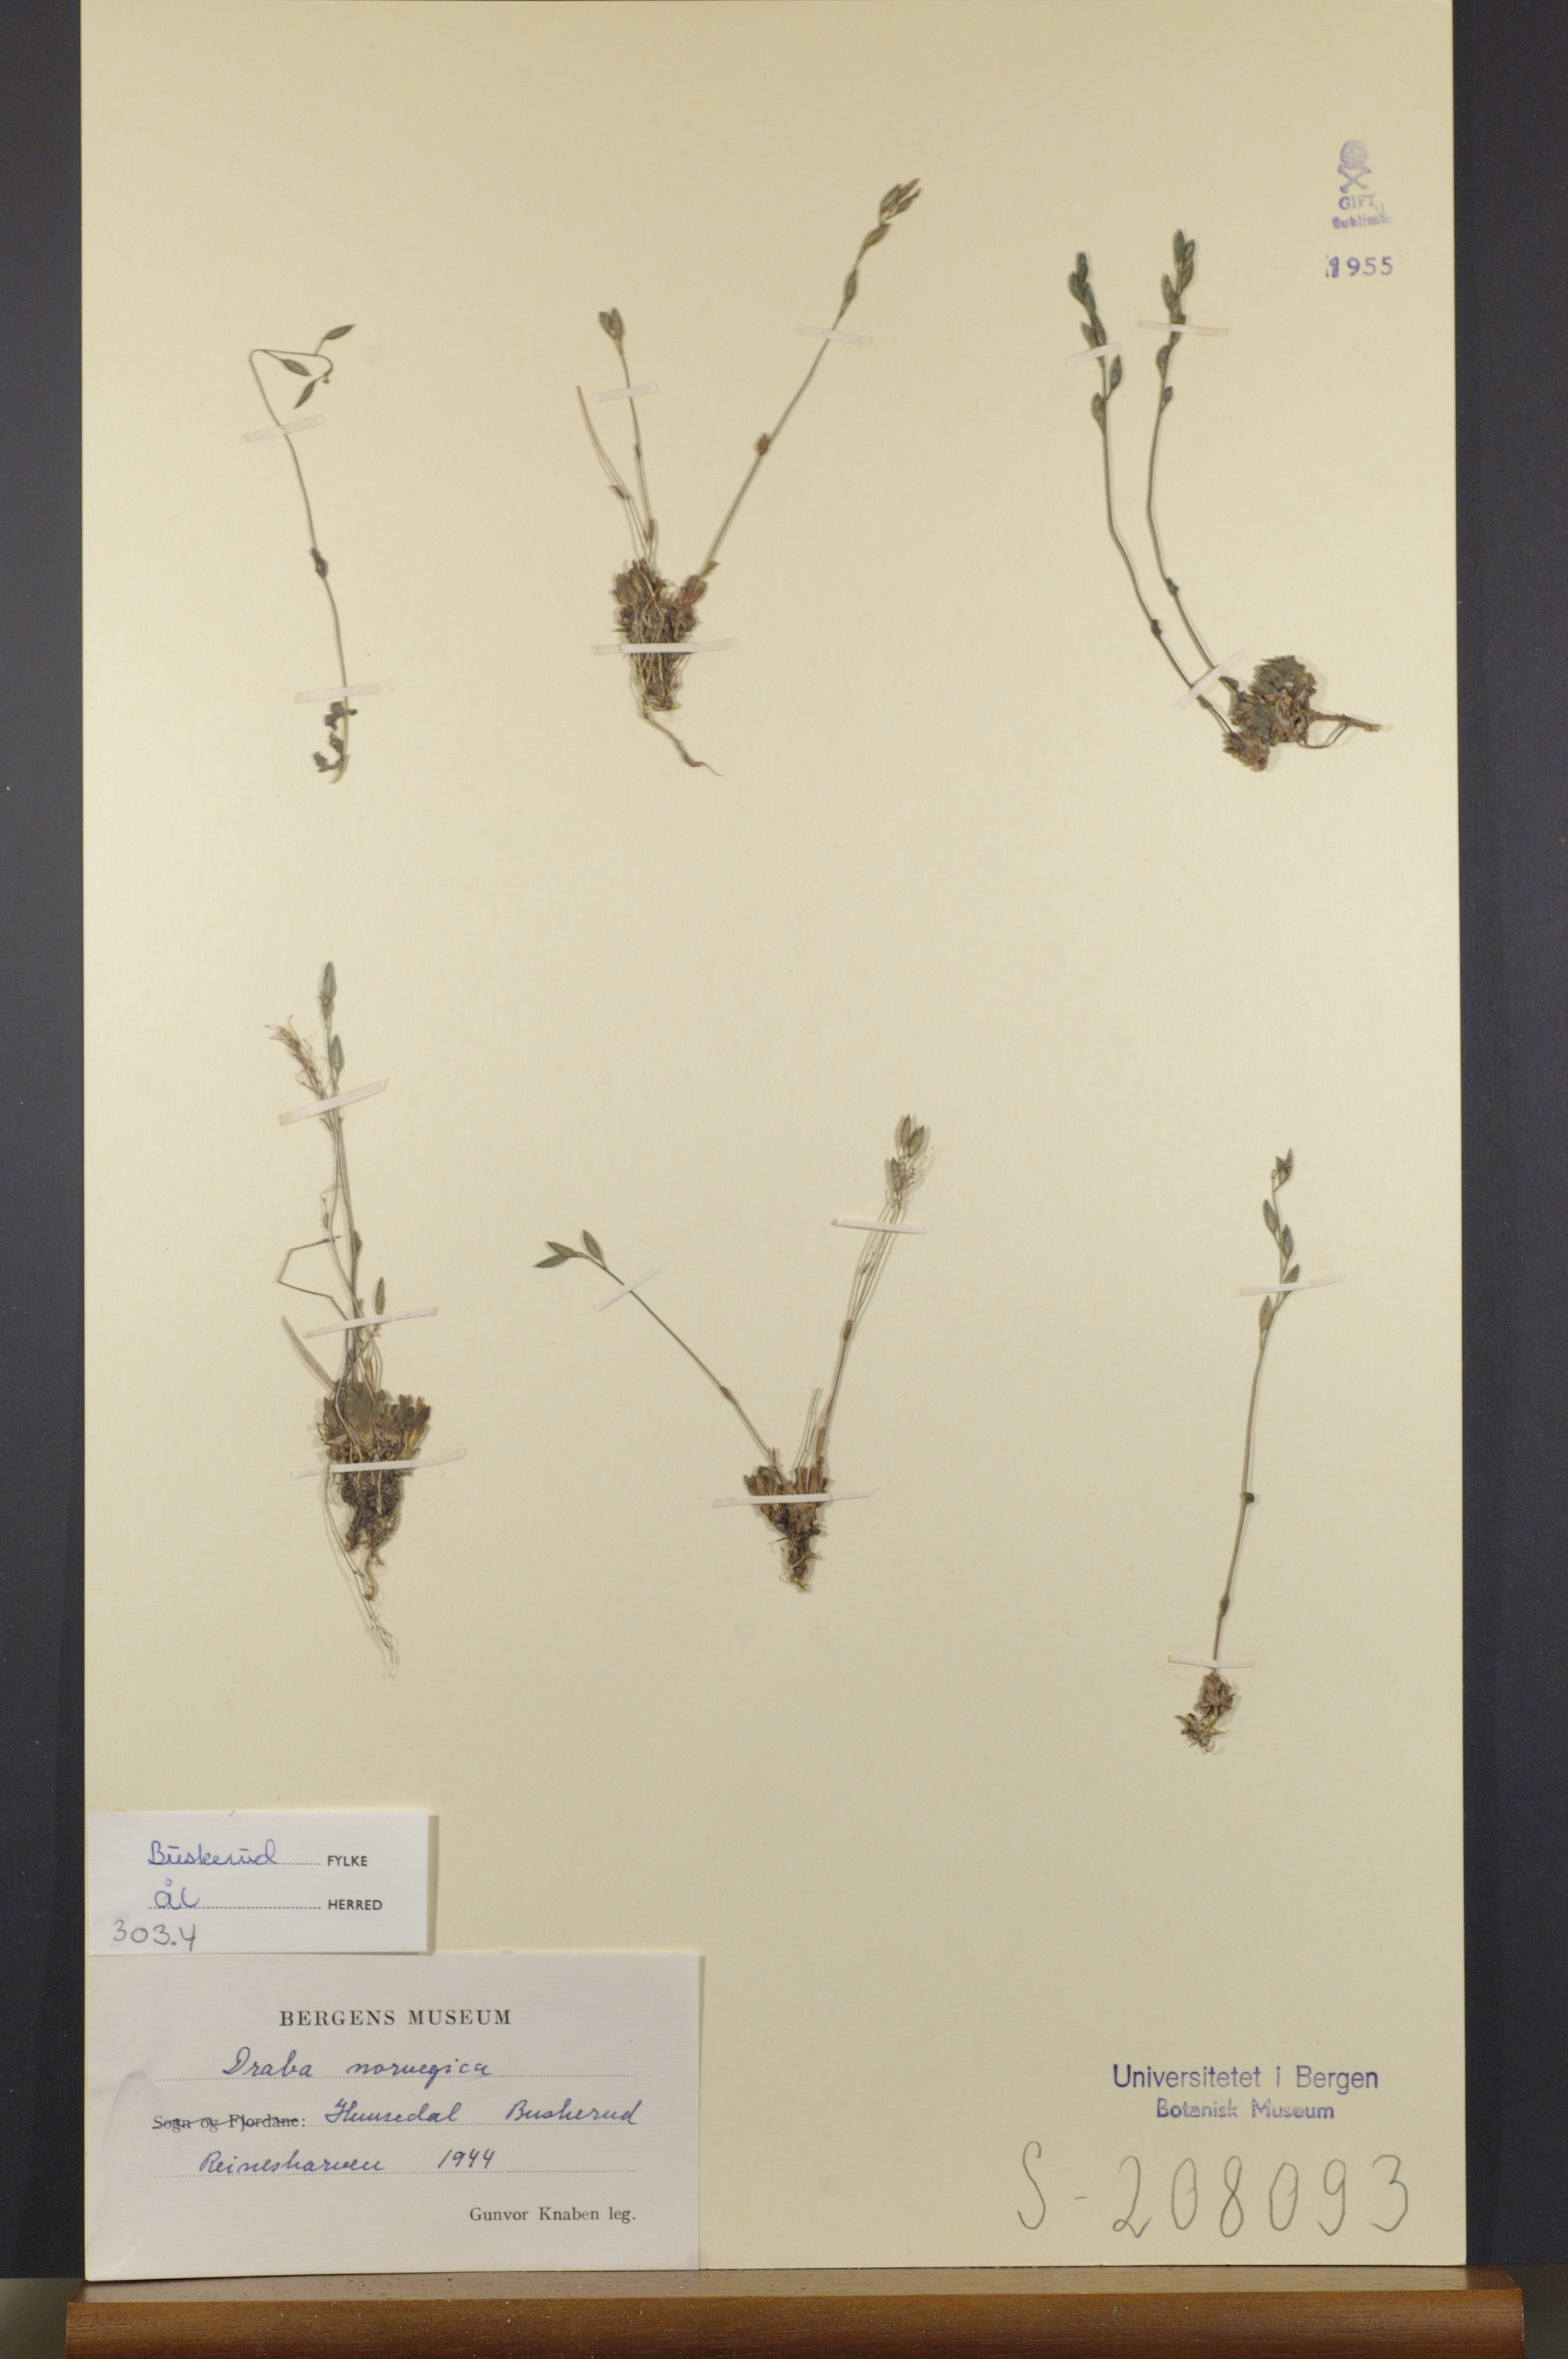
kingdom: Plantae
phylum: Tracheophyta
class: Magnoliopsida
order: Brassicales
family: Brassicaceae
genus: Draba
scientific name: Draba norvegica
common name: Rock whitlowgrass
